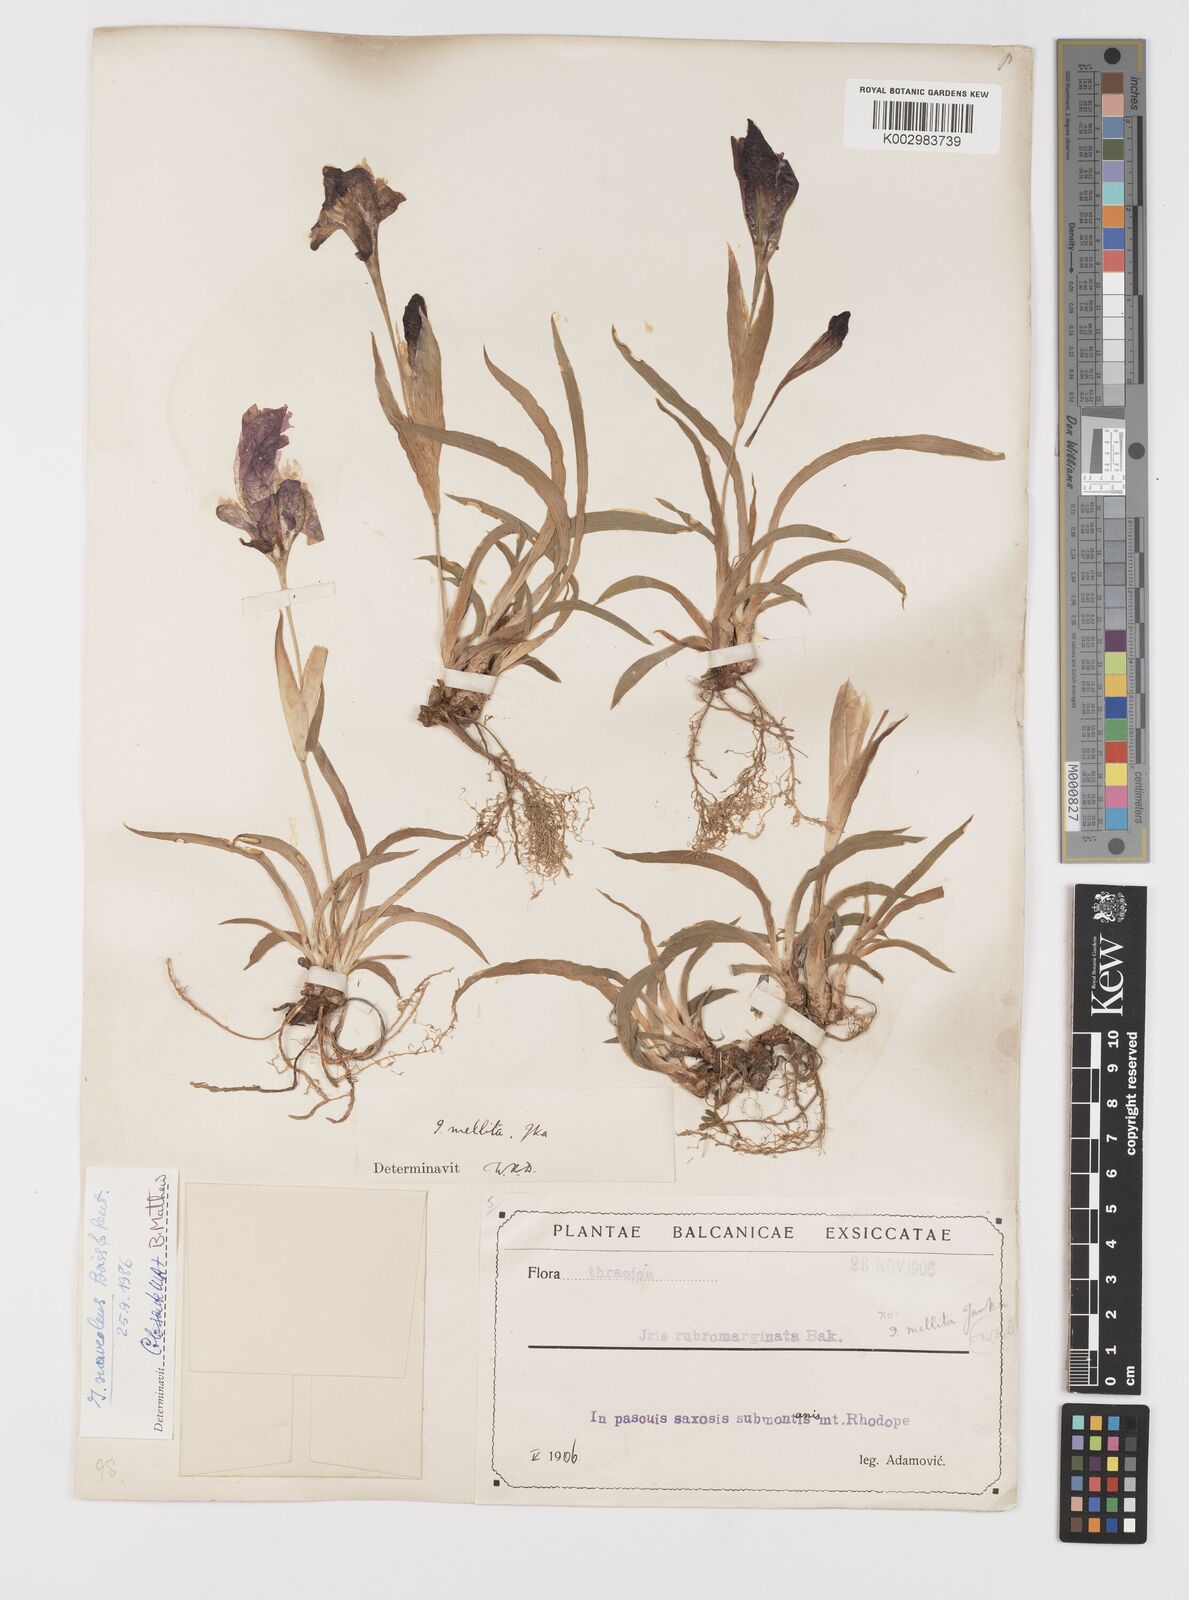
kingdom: Plantae
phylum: Tracheophyta
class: Liliopsida
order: Asparagales
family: Iridaceae
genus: Iris
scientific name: Iris suaveolens
